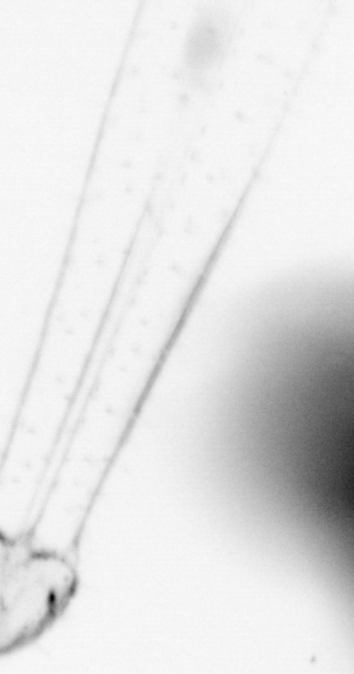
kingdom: Animalia
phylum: Chaetognatha
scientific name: Chaetognatha
